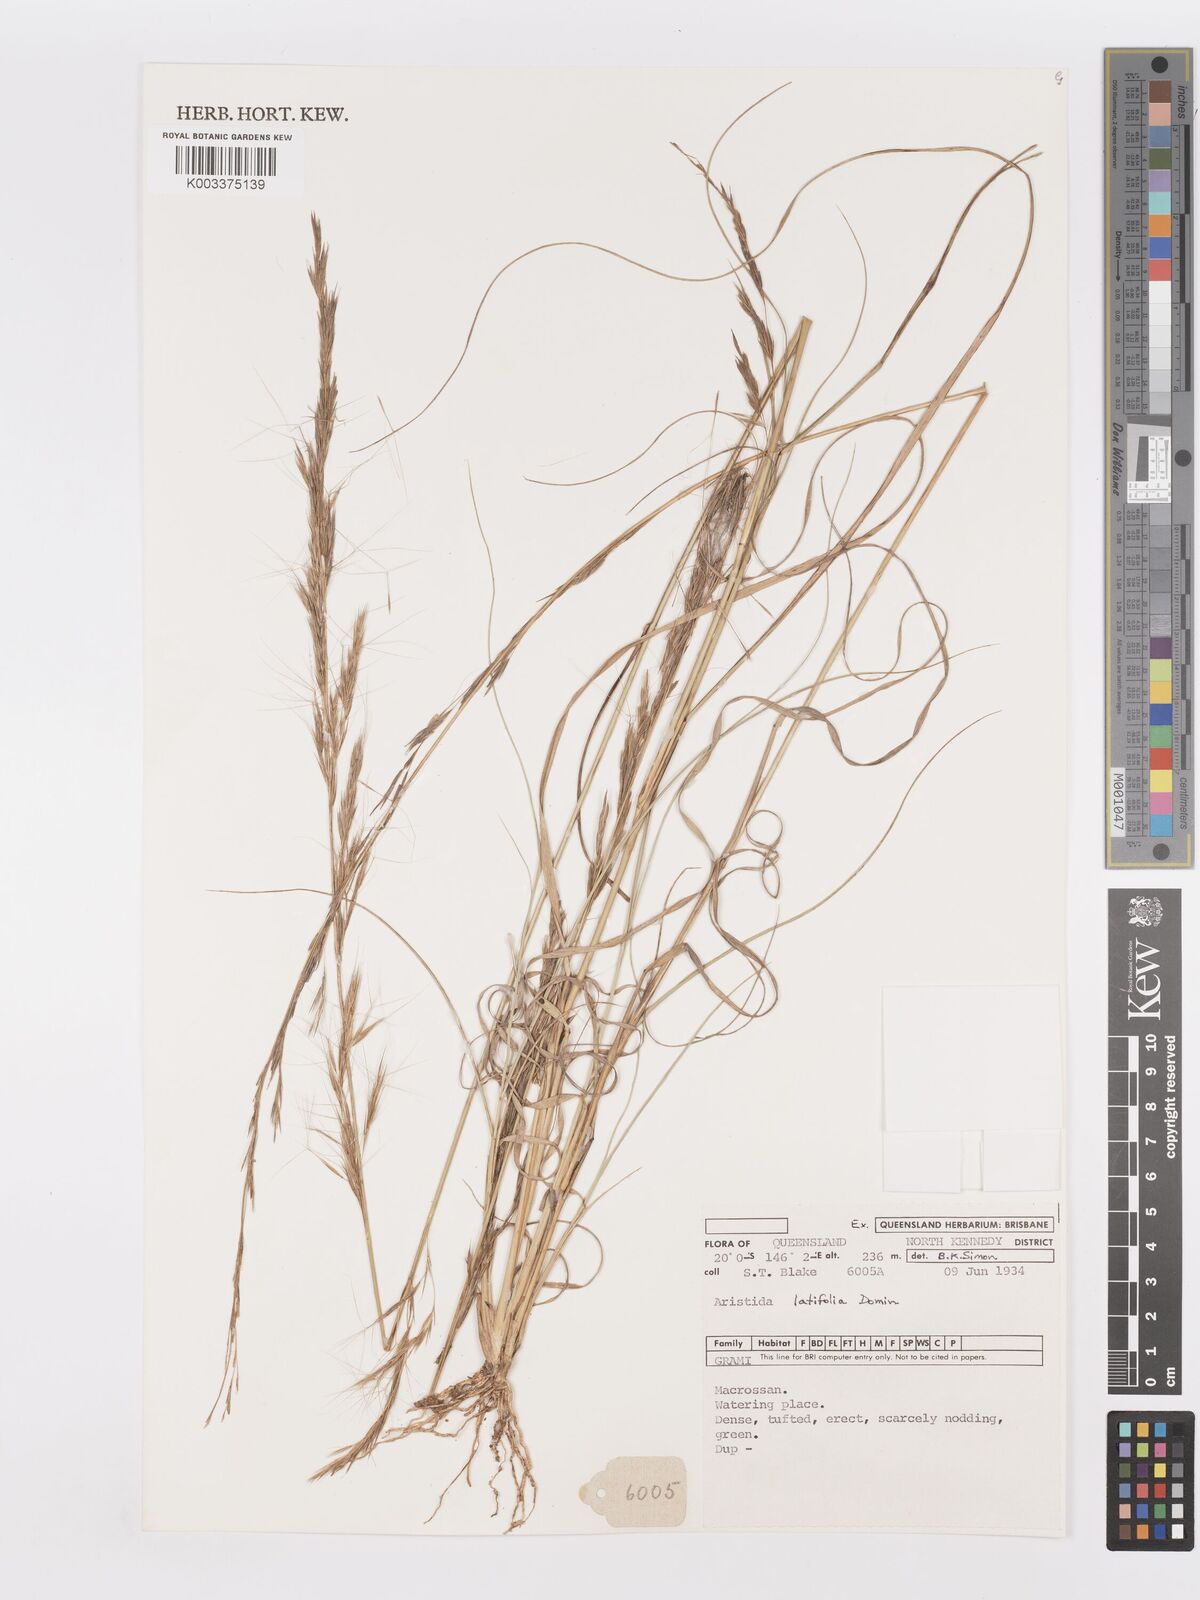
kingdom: Plantae
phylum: Tracheophyta
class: Liliopsida
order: Poales
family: Poaceae
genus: Aristida
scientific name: Aristida latifolia
